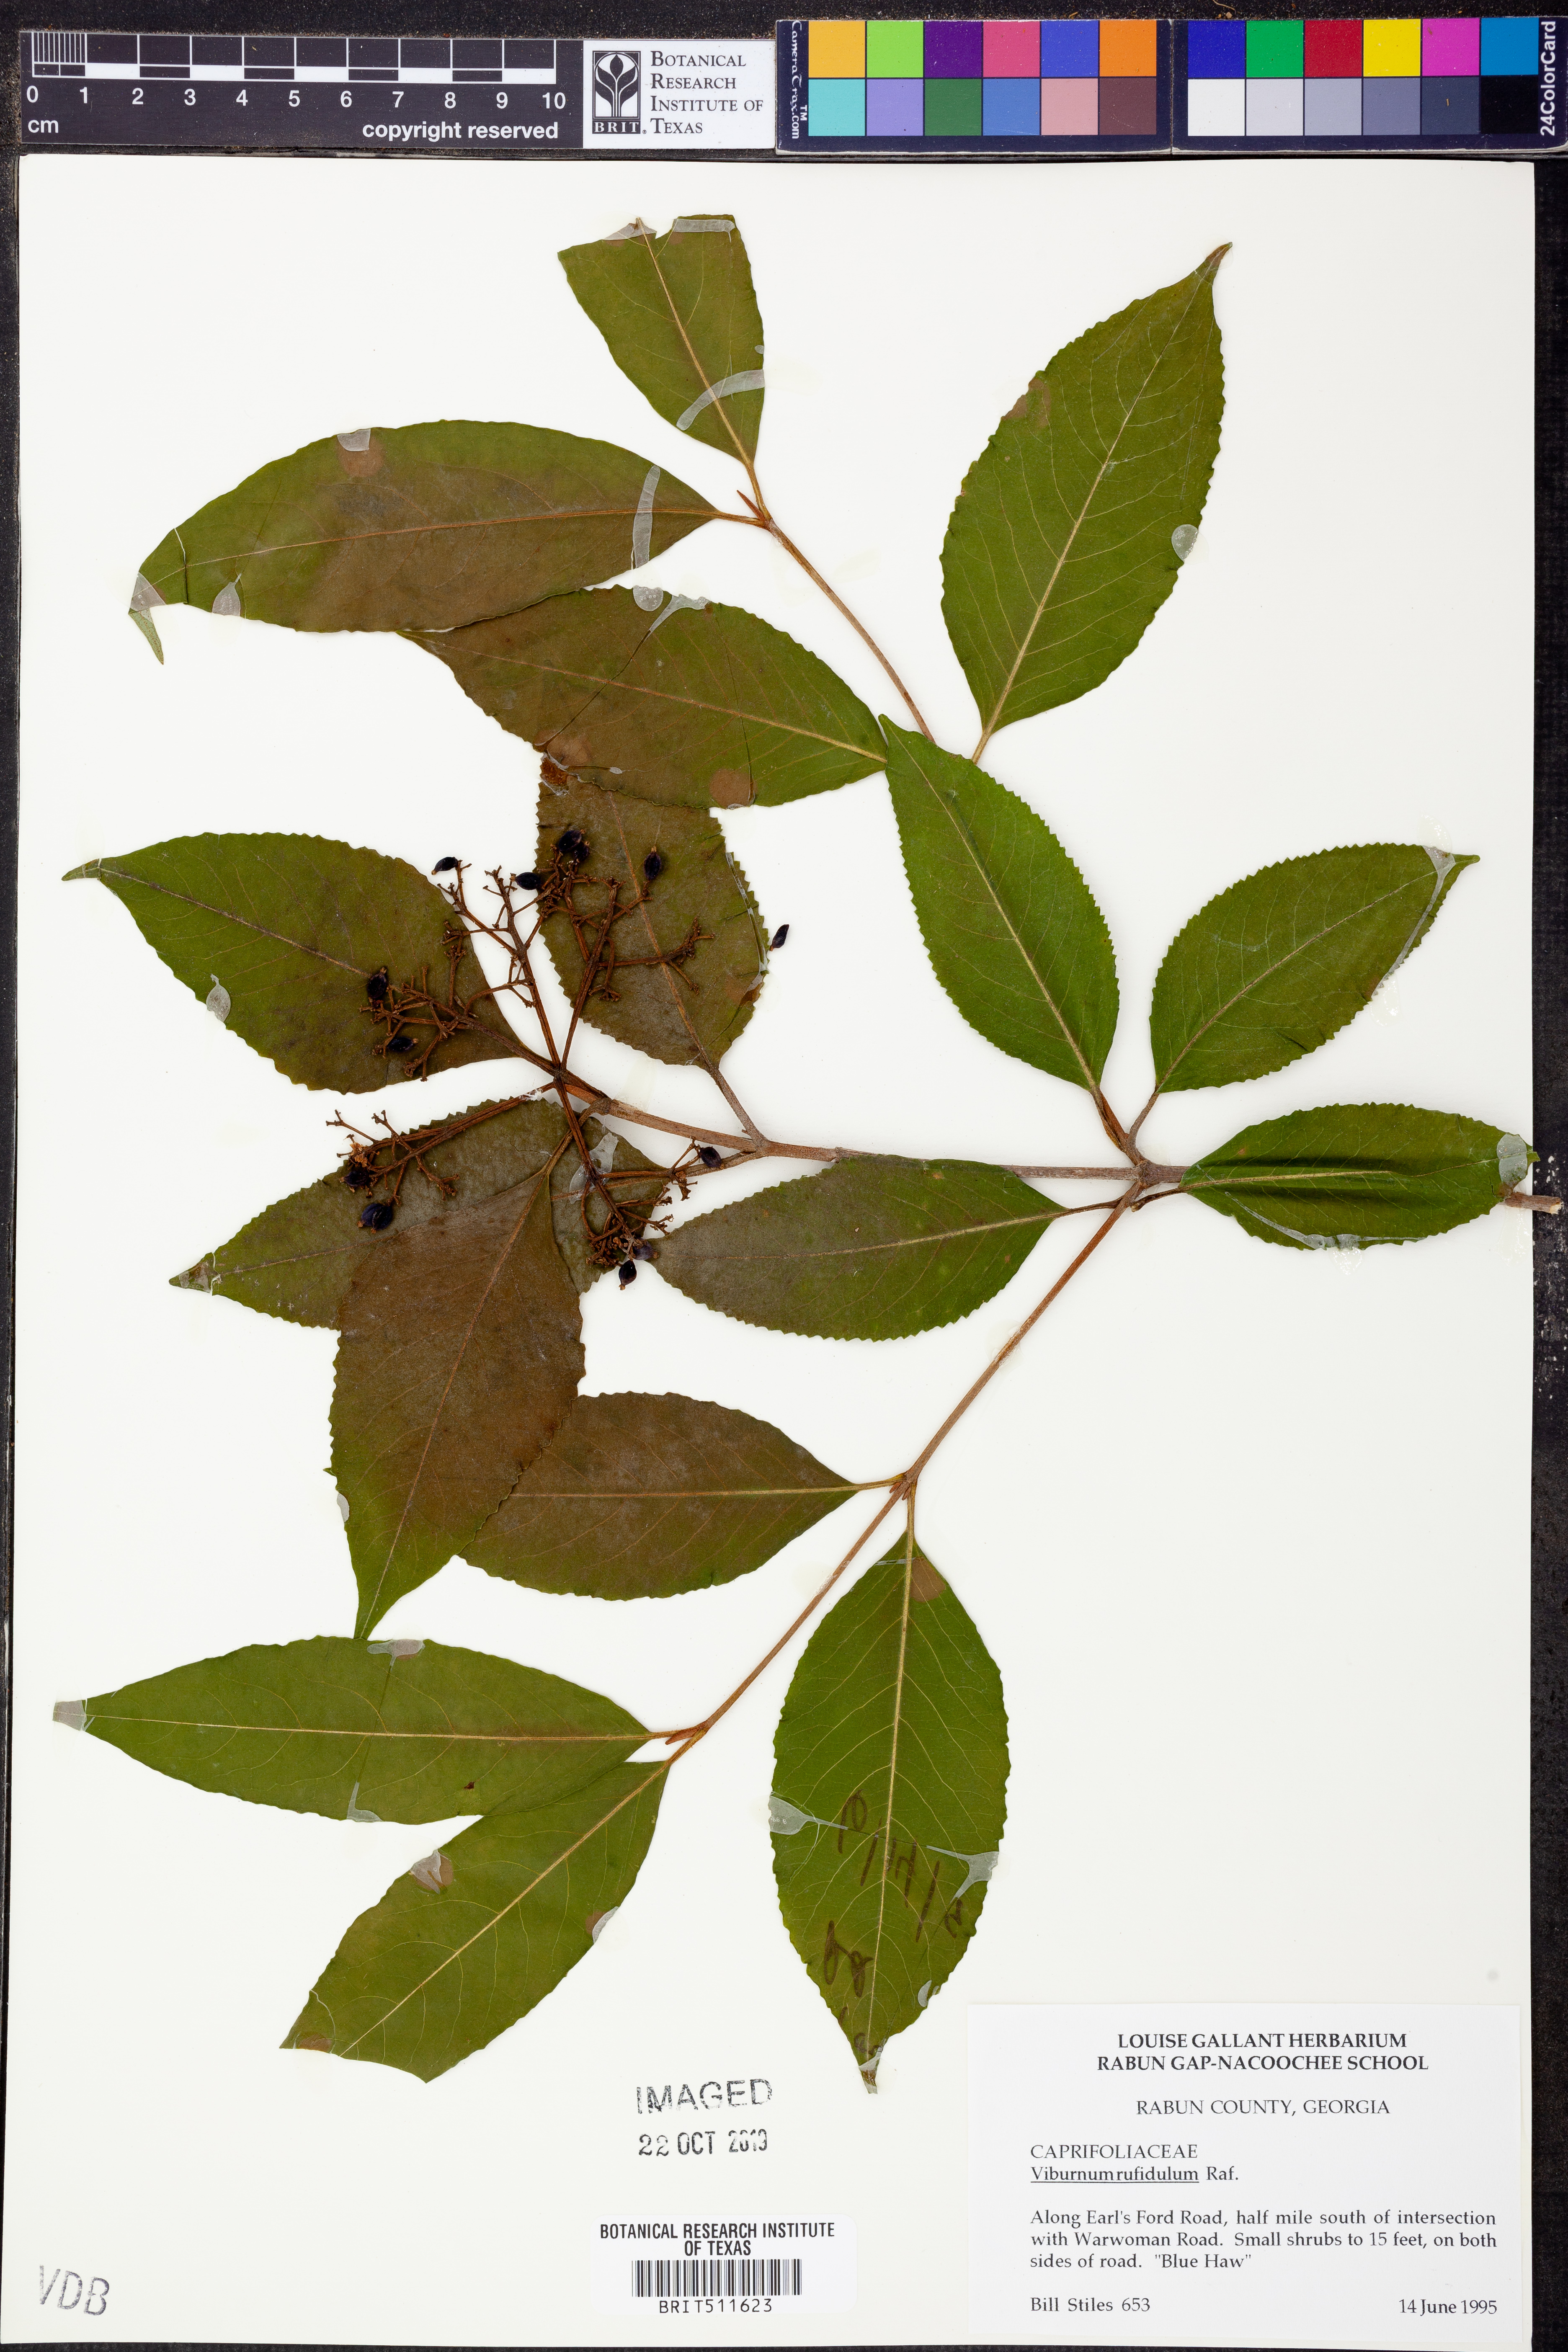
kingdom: Plantae
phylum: Tracheophyta
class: Magnoliopsida
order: Dipsacales
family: Viburnaceae
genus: Viburnum
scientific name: Viburnum rufidulum
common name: Blue haw
